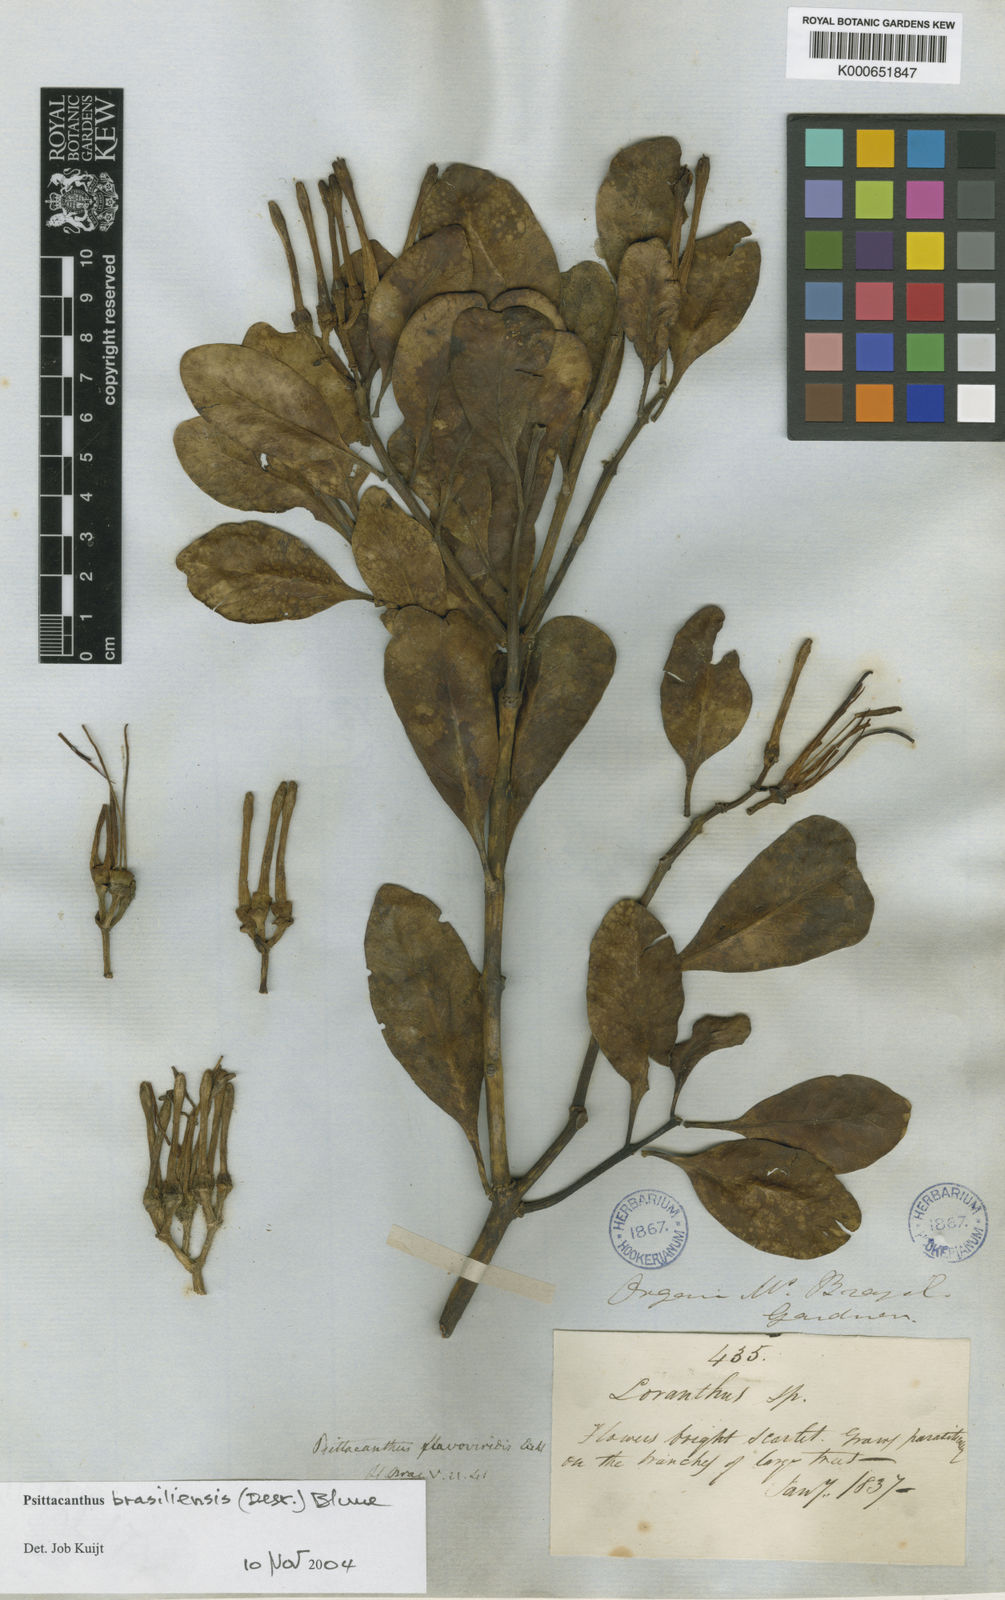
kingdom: Plantae
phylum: Tracheophyta
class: Magnoliopsida
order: Santalales
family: Loranthaceae
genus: Psittacanthus
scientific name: Psittacanthus brasiliensis
